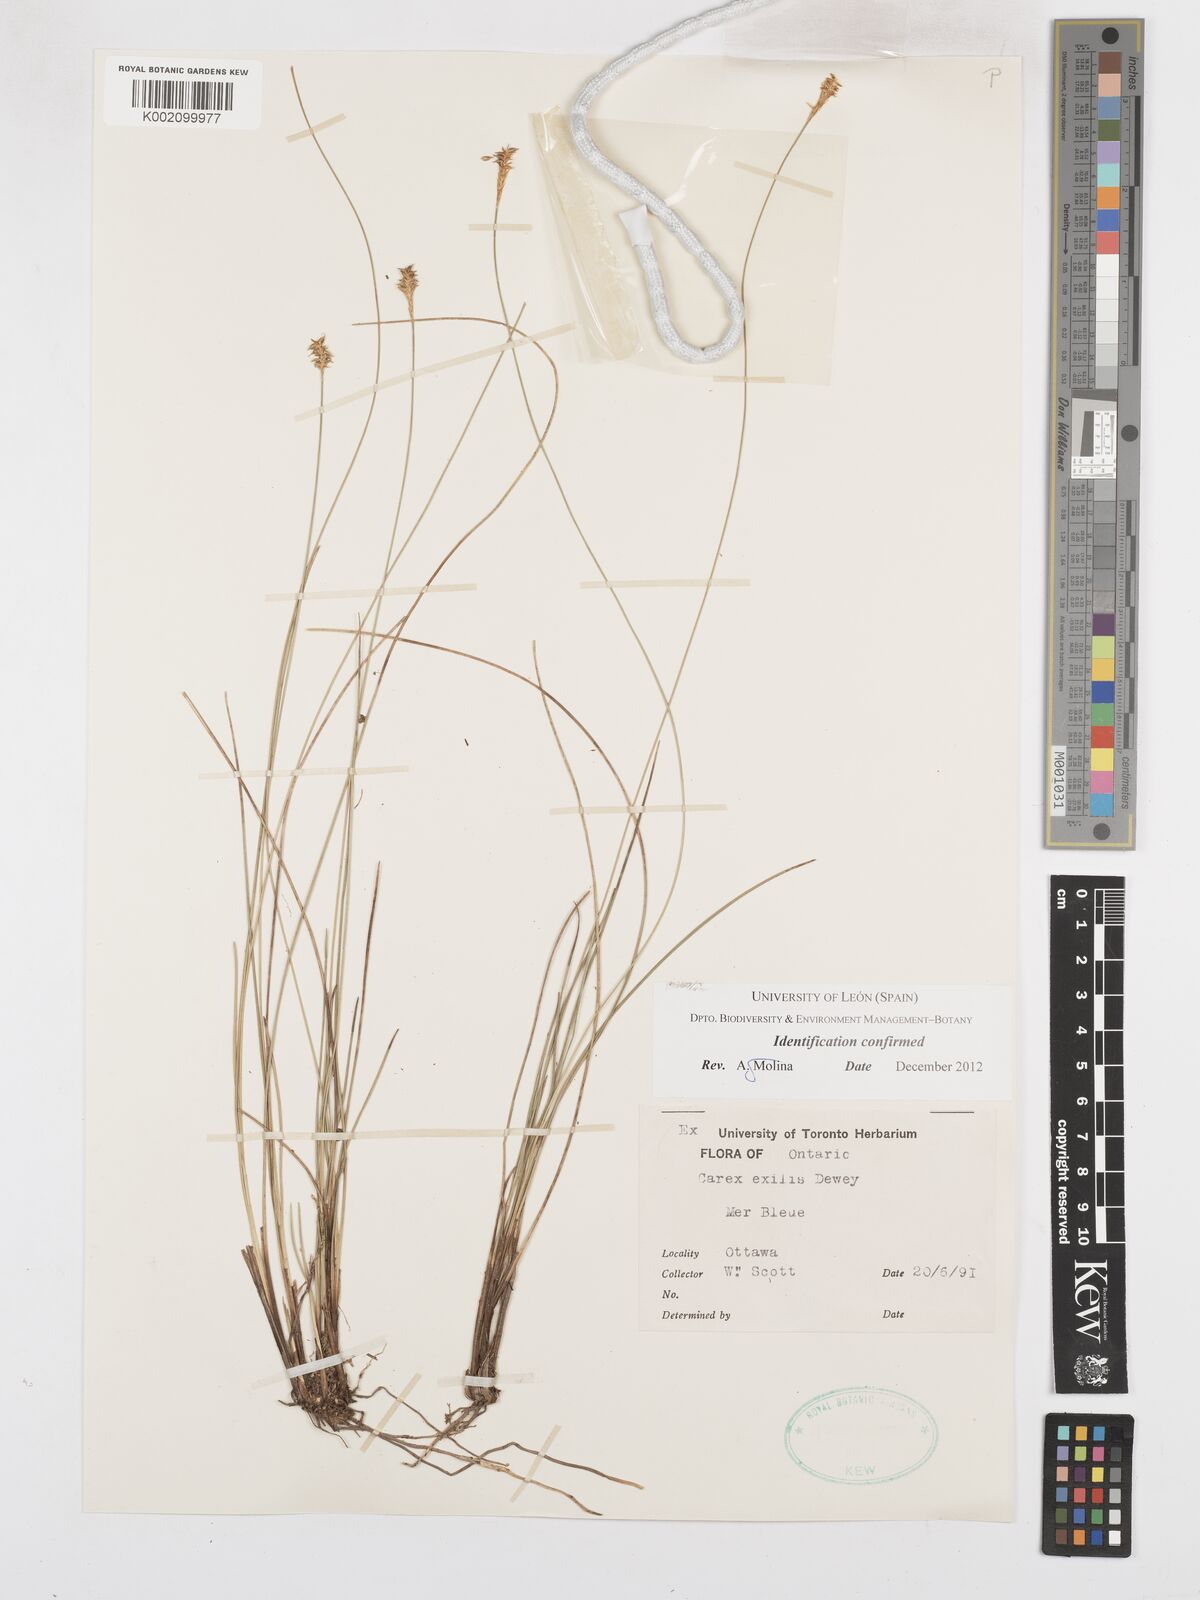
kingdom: Plantae
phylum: Tracheophyta
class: Liliopsida
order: Poales
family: Cyperaceae
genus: Carex
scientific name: Carex exilis
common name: Coastal sedge
